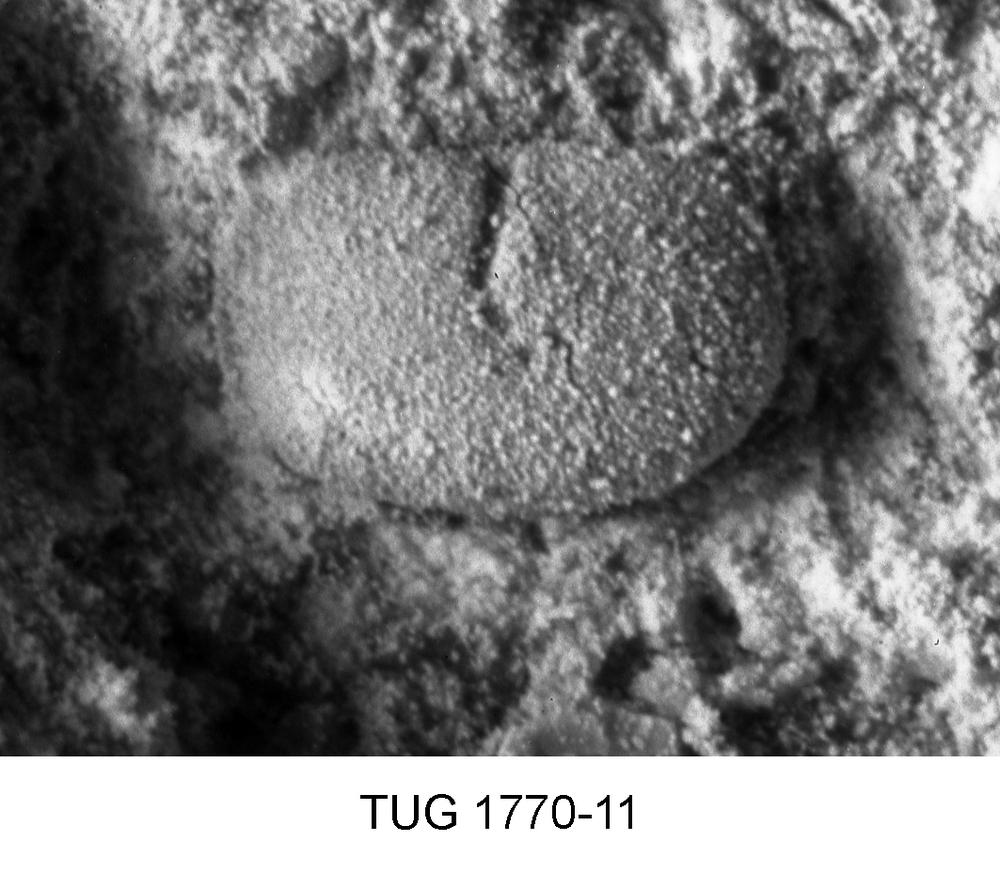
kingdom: Animalia
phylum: Arthropoda
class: Ostracoda
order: Platycopida
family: Kloedenellidae
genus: Kloedenella
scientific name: Kloedenella
